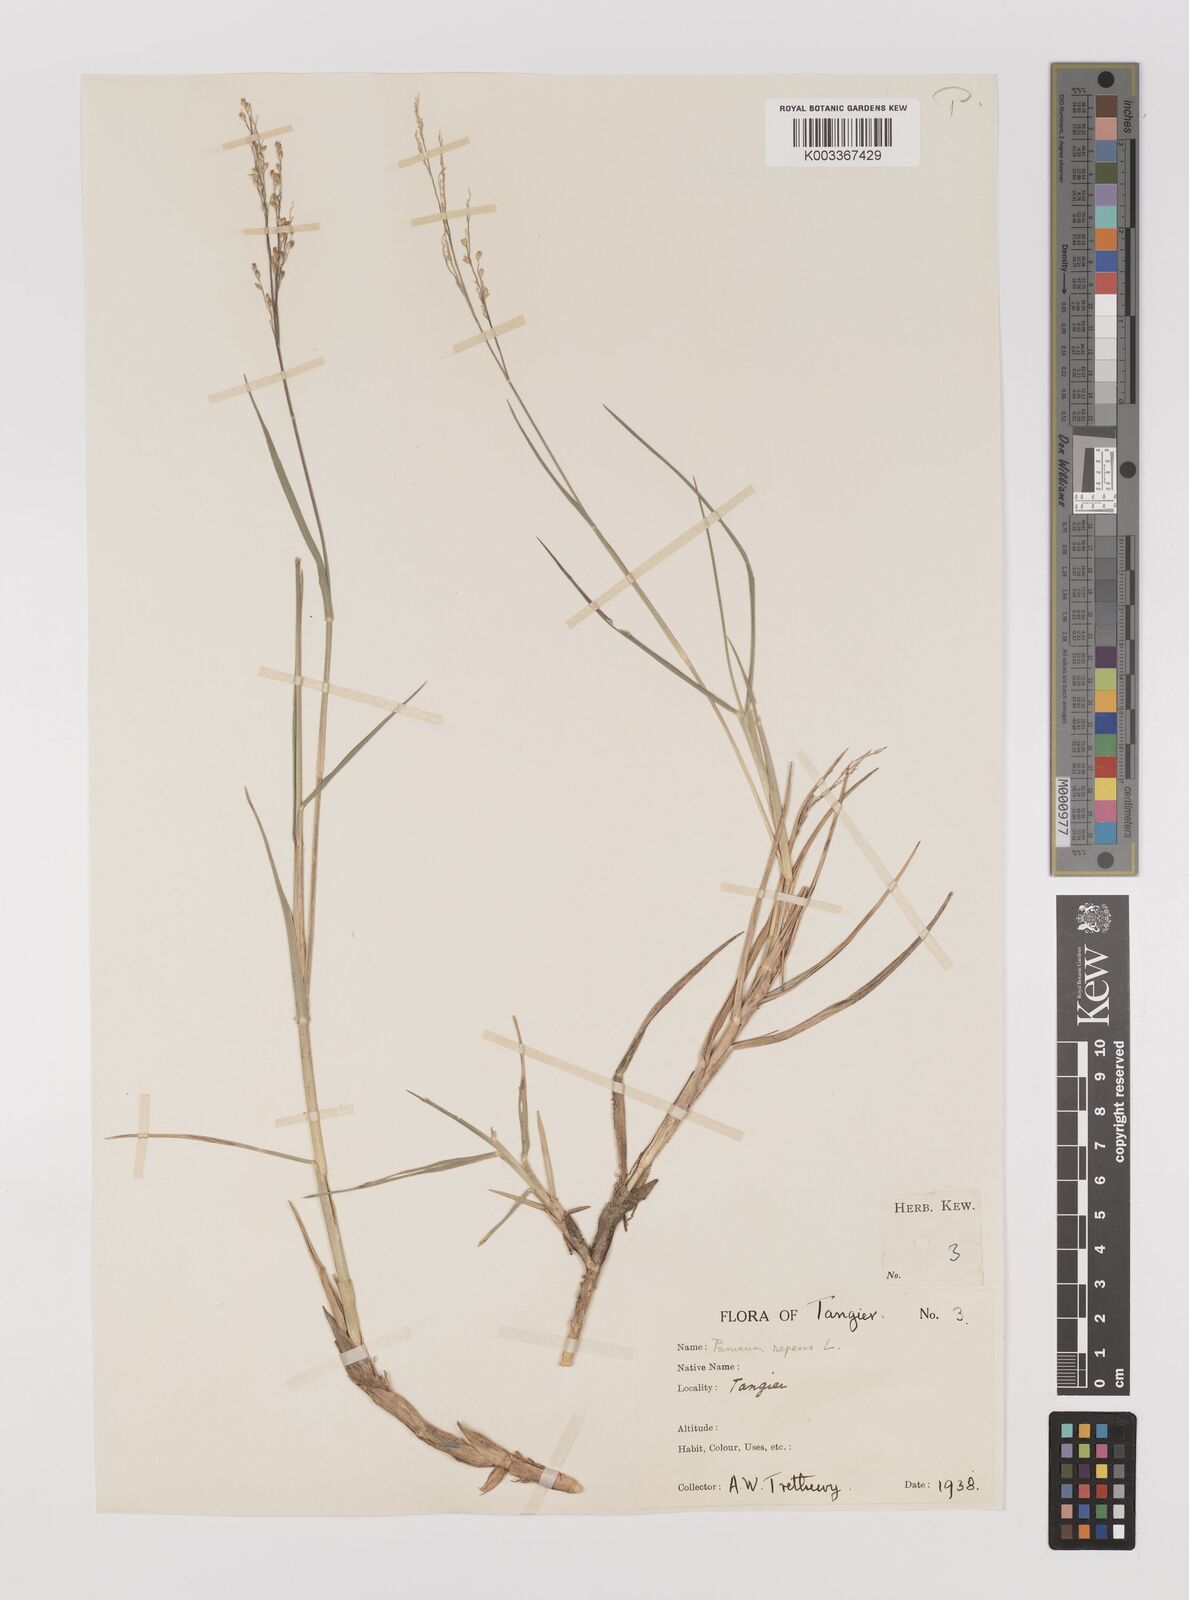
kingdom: Plantae
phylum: Tracheophyta
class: Liliopsida
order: Poales
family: Poaceae
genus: Panicum
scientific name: Panicum repens
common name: Torpedo grass
